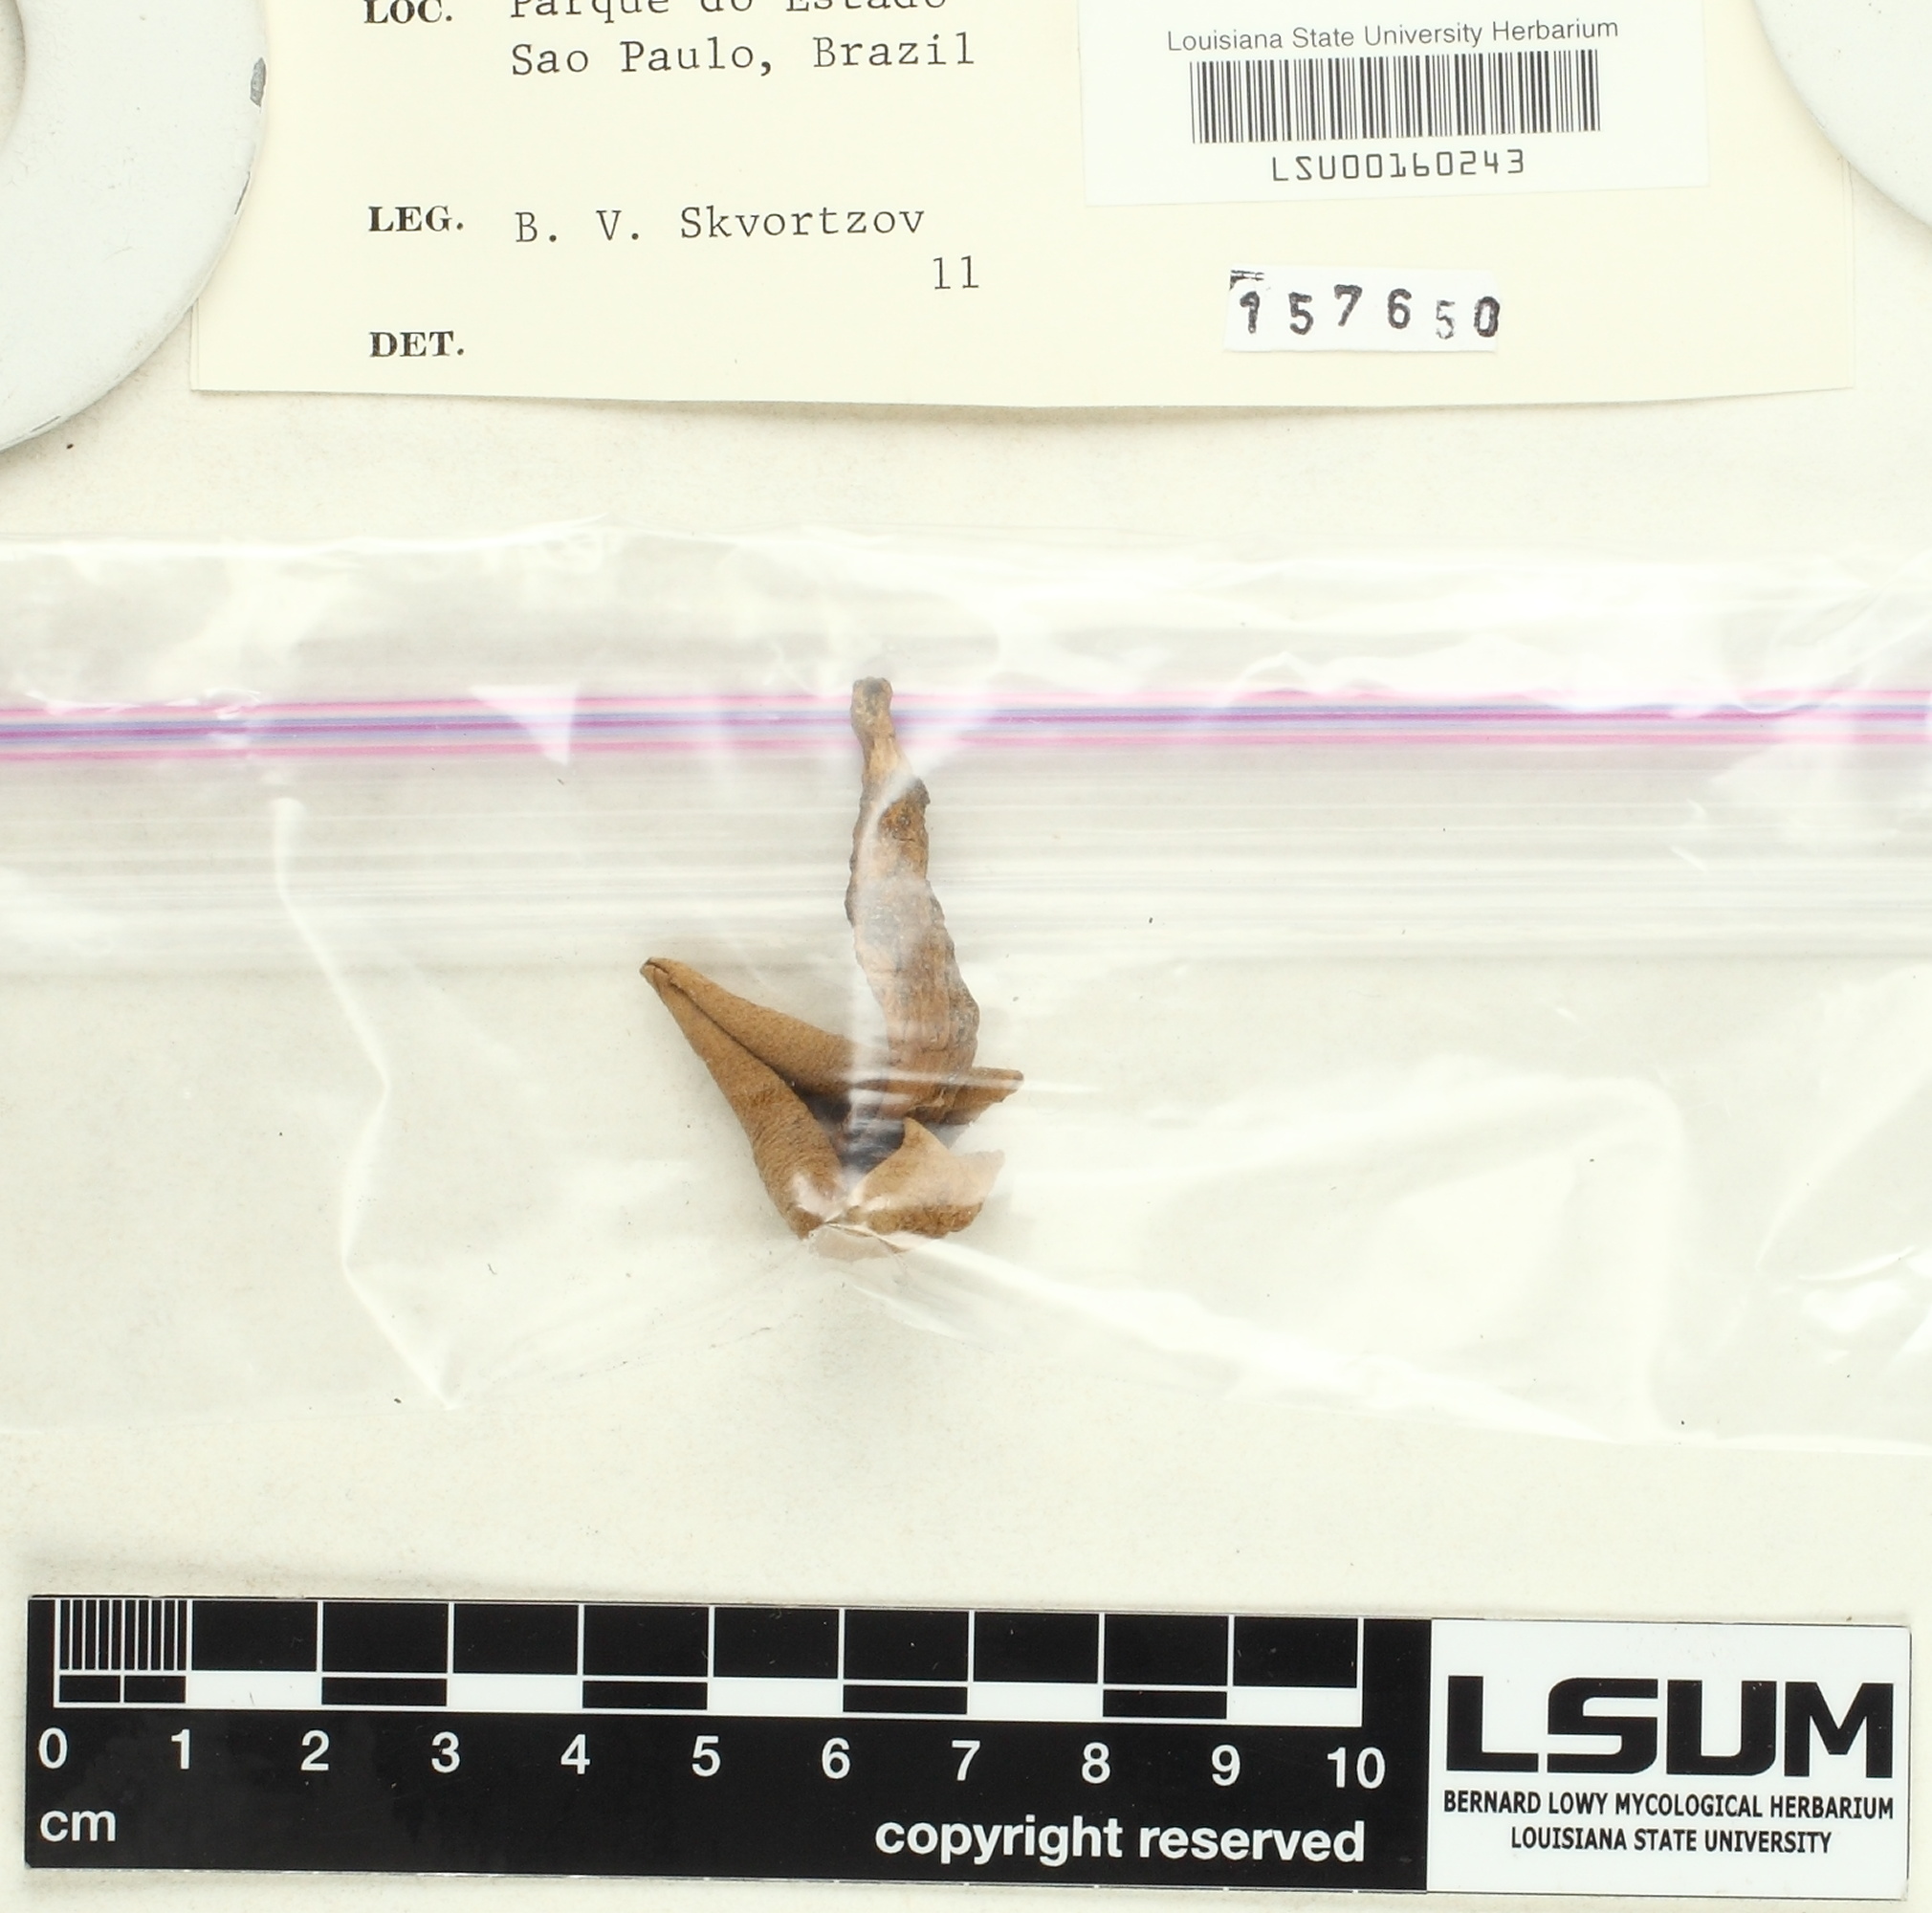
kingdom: Fungi
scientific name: Fungi
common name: Fungi
